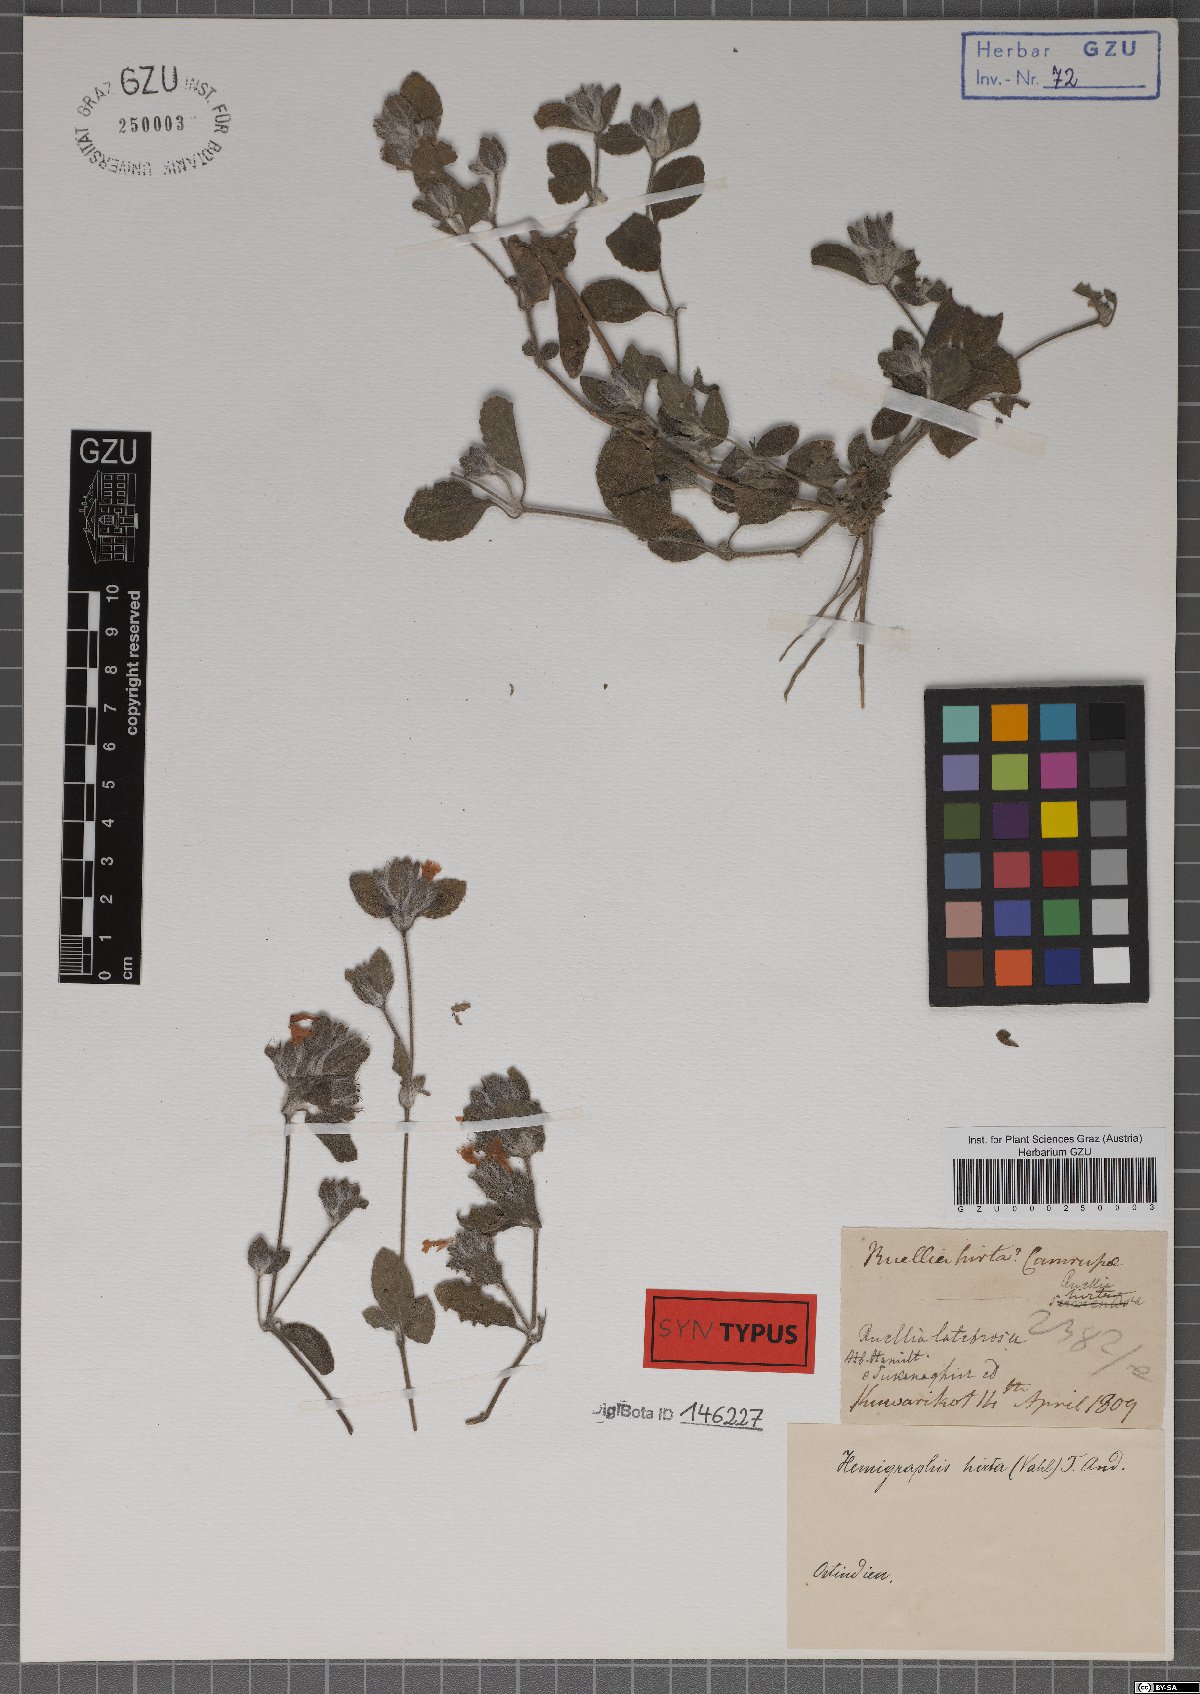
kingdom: Plantae
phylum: Tracheophyta
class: Magnoliopsida
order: Lamiales
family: Acanthaceae
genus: Strobilanthes
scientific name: Strobilanthes hirta
